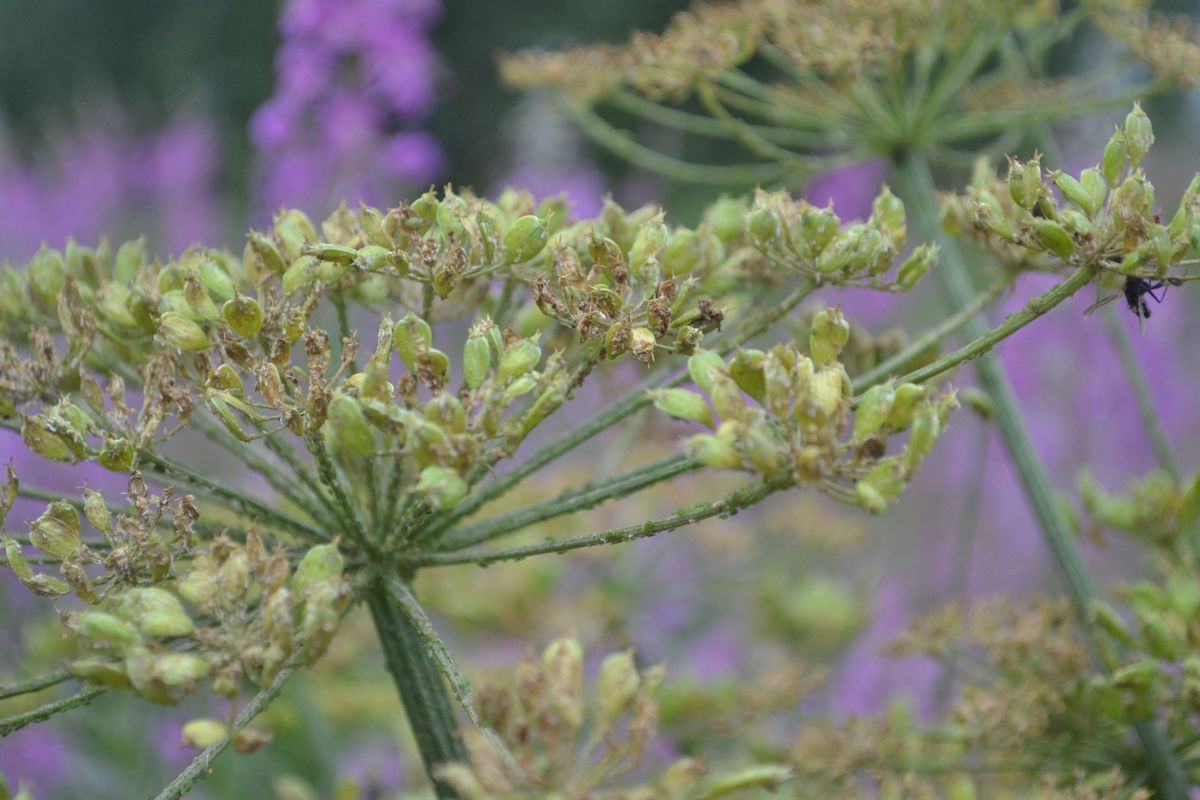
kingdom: Plantae
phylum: Tracheophyta
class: Magnoliopsida
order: Apiales
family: Apiaceae
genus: Heracleum
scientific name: Heracleum sphondylium
